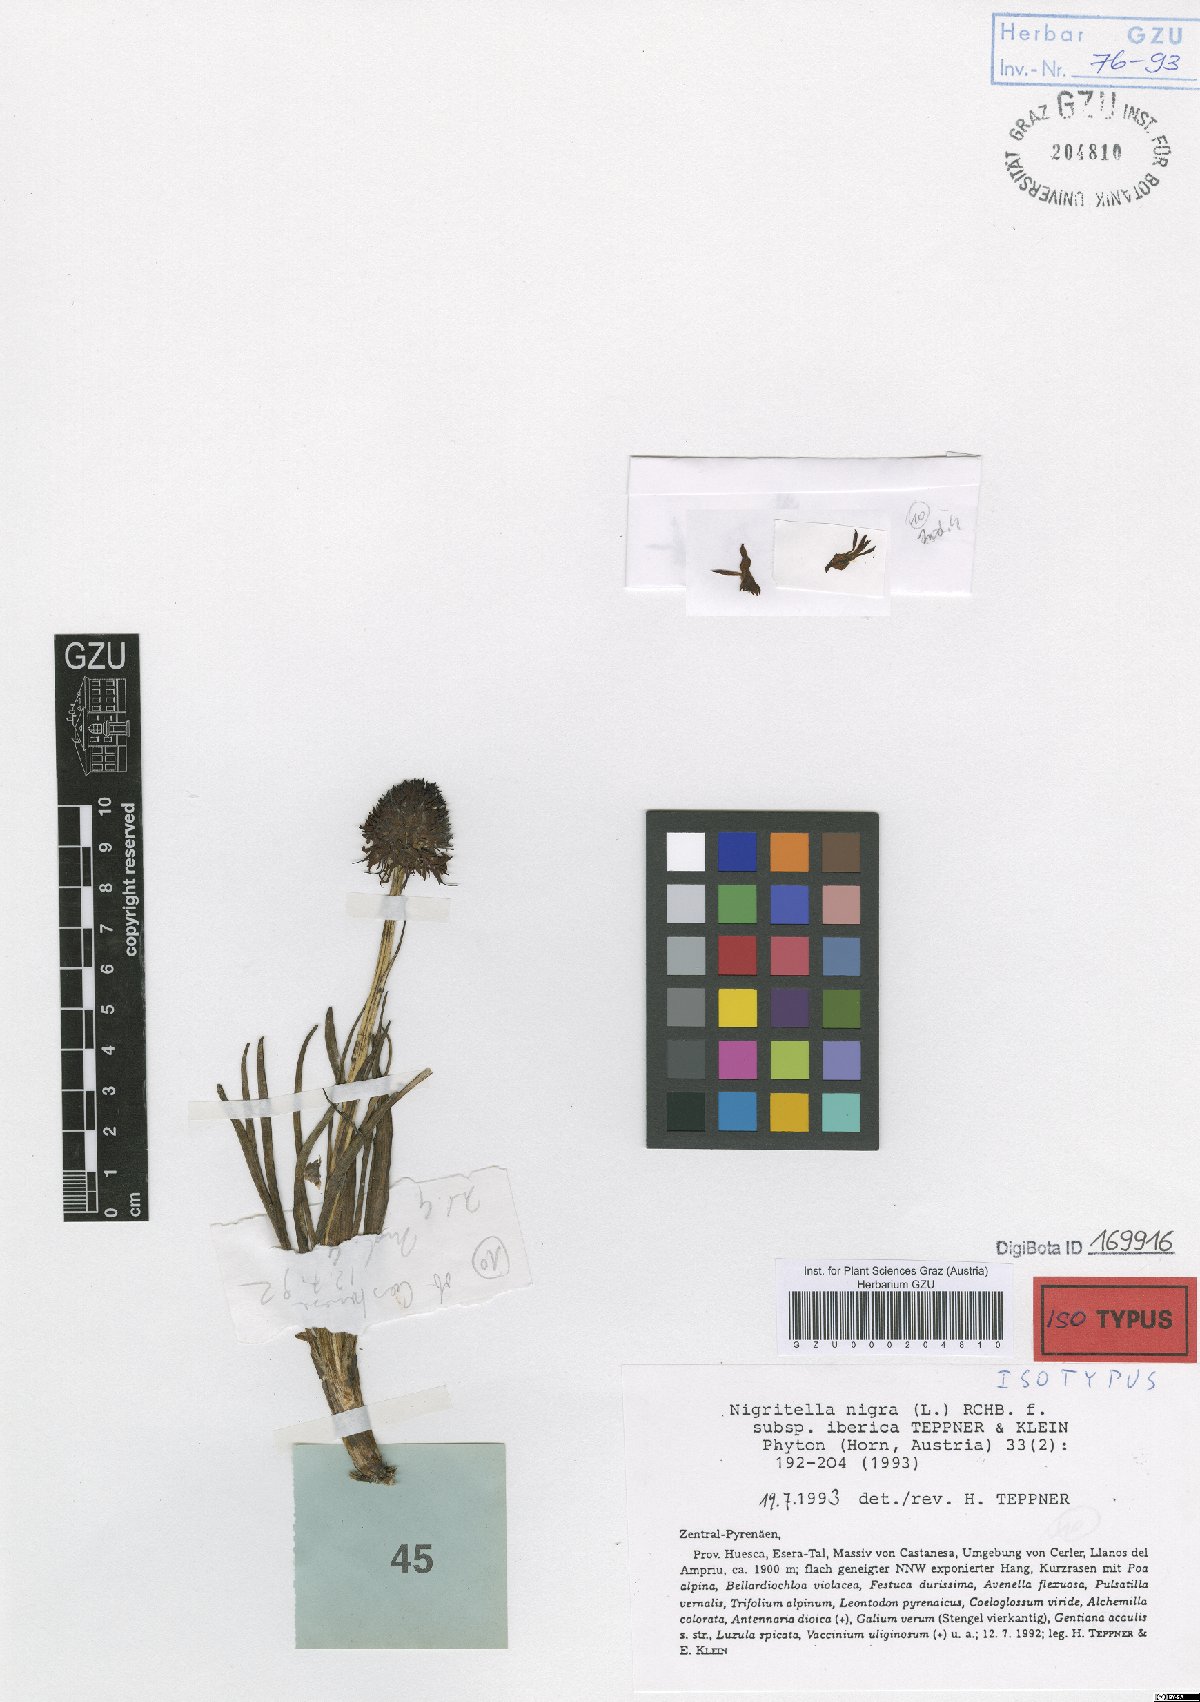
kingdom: Plantae
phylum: Tracheophyta
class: Liliopsida
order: Asparagales
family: Orchidaceae
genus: Gymnadenia
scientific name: Gymnadenia austriaca
